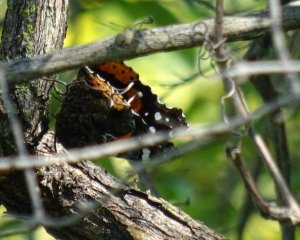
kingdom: Animalia
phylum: Arthropoda
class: Insecta
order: Lepidoptera
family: Nymphalidae
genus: Vanessa
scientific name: Vanessa atalanta
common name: Red Admiral
